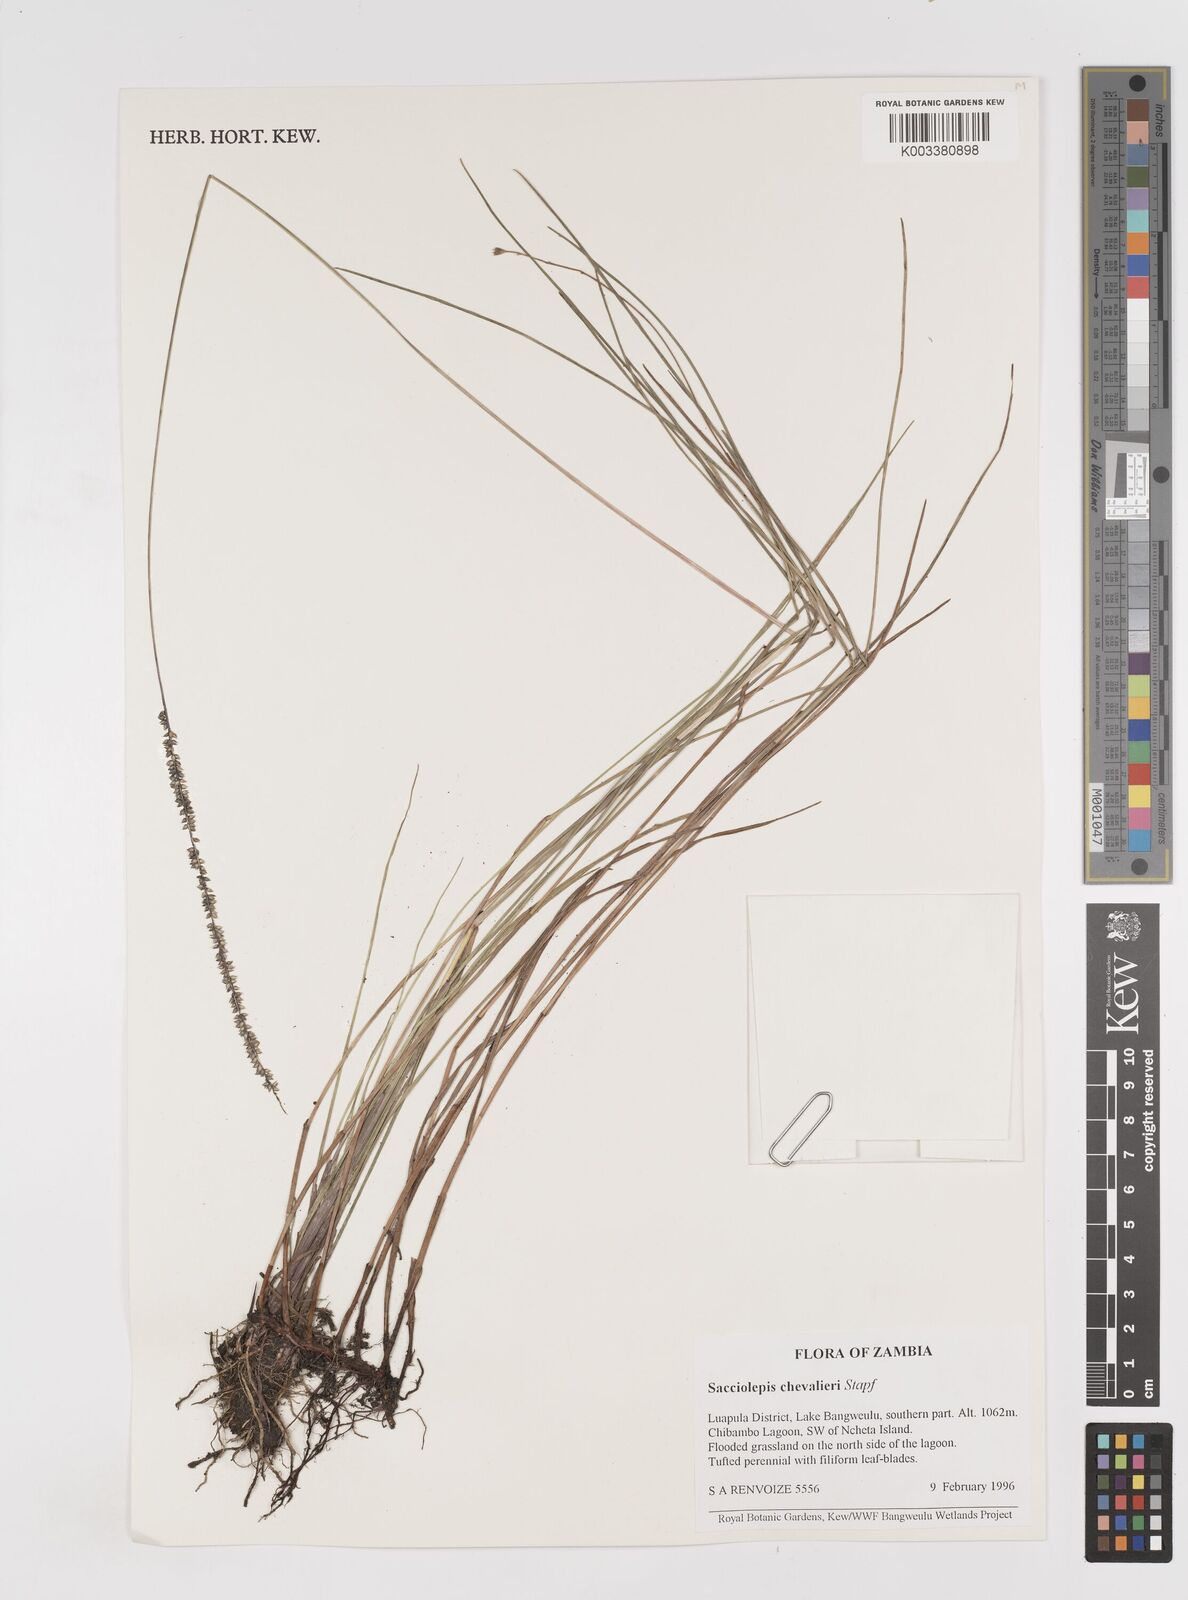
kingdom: Plantae
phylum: Tracheophyta
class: Liliopsida
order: Poales
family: Poaceae
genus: Sacciolepis
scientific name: Sacciolepis chevalieri
